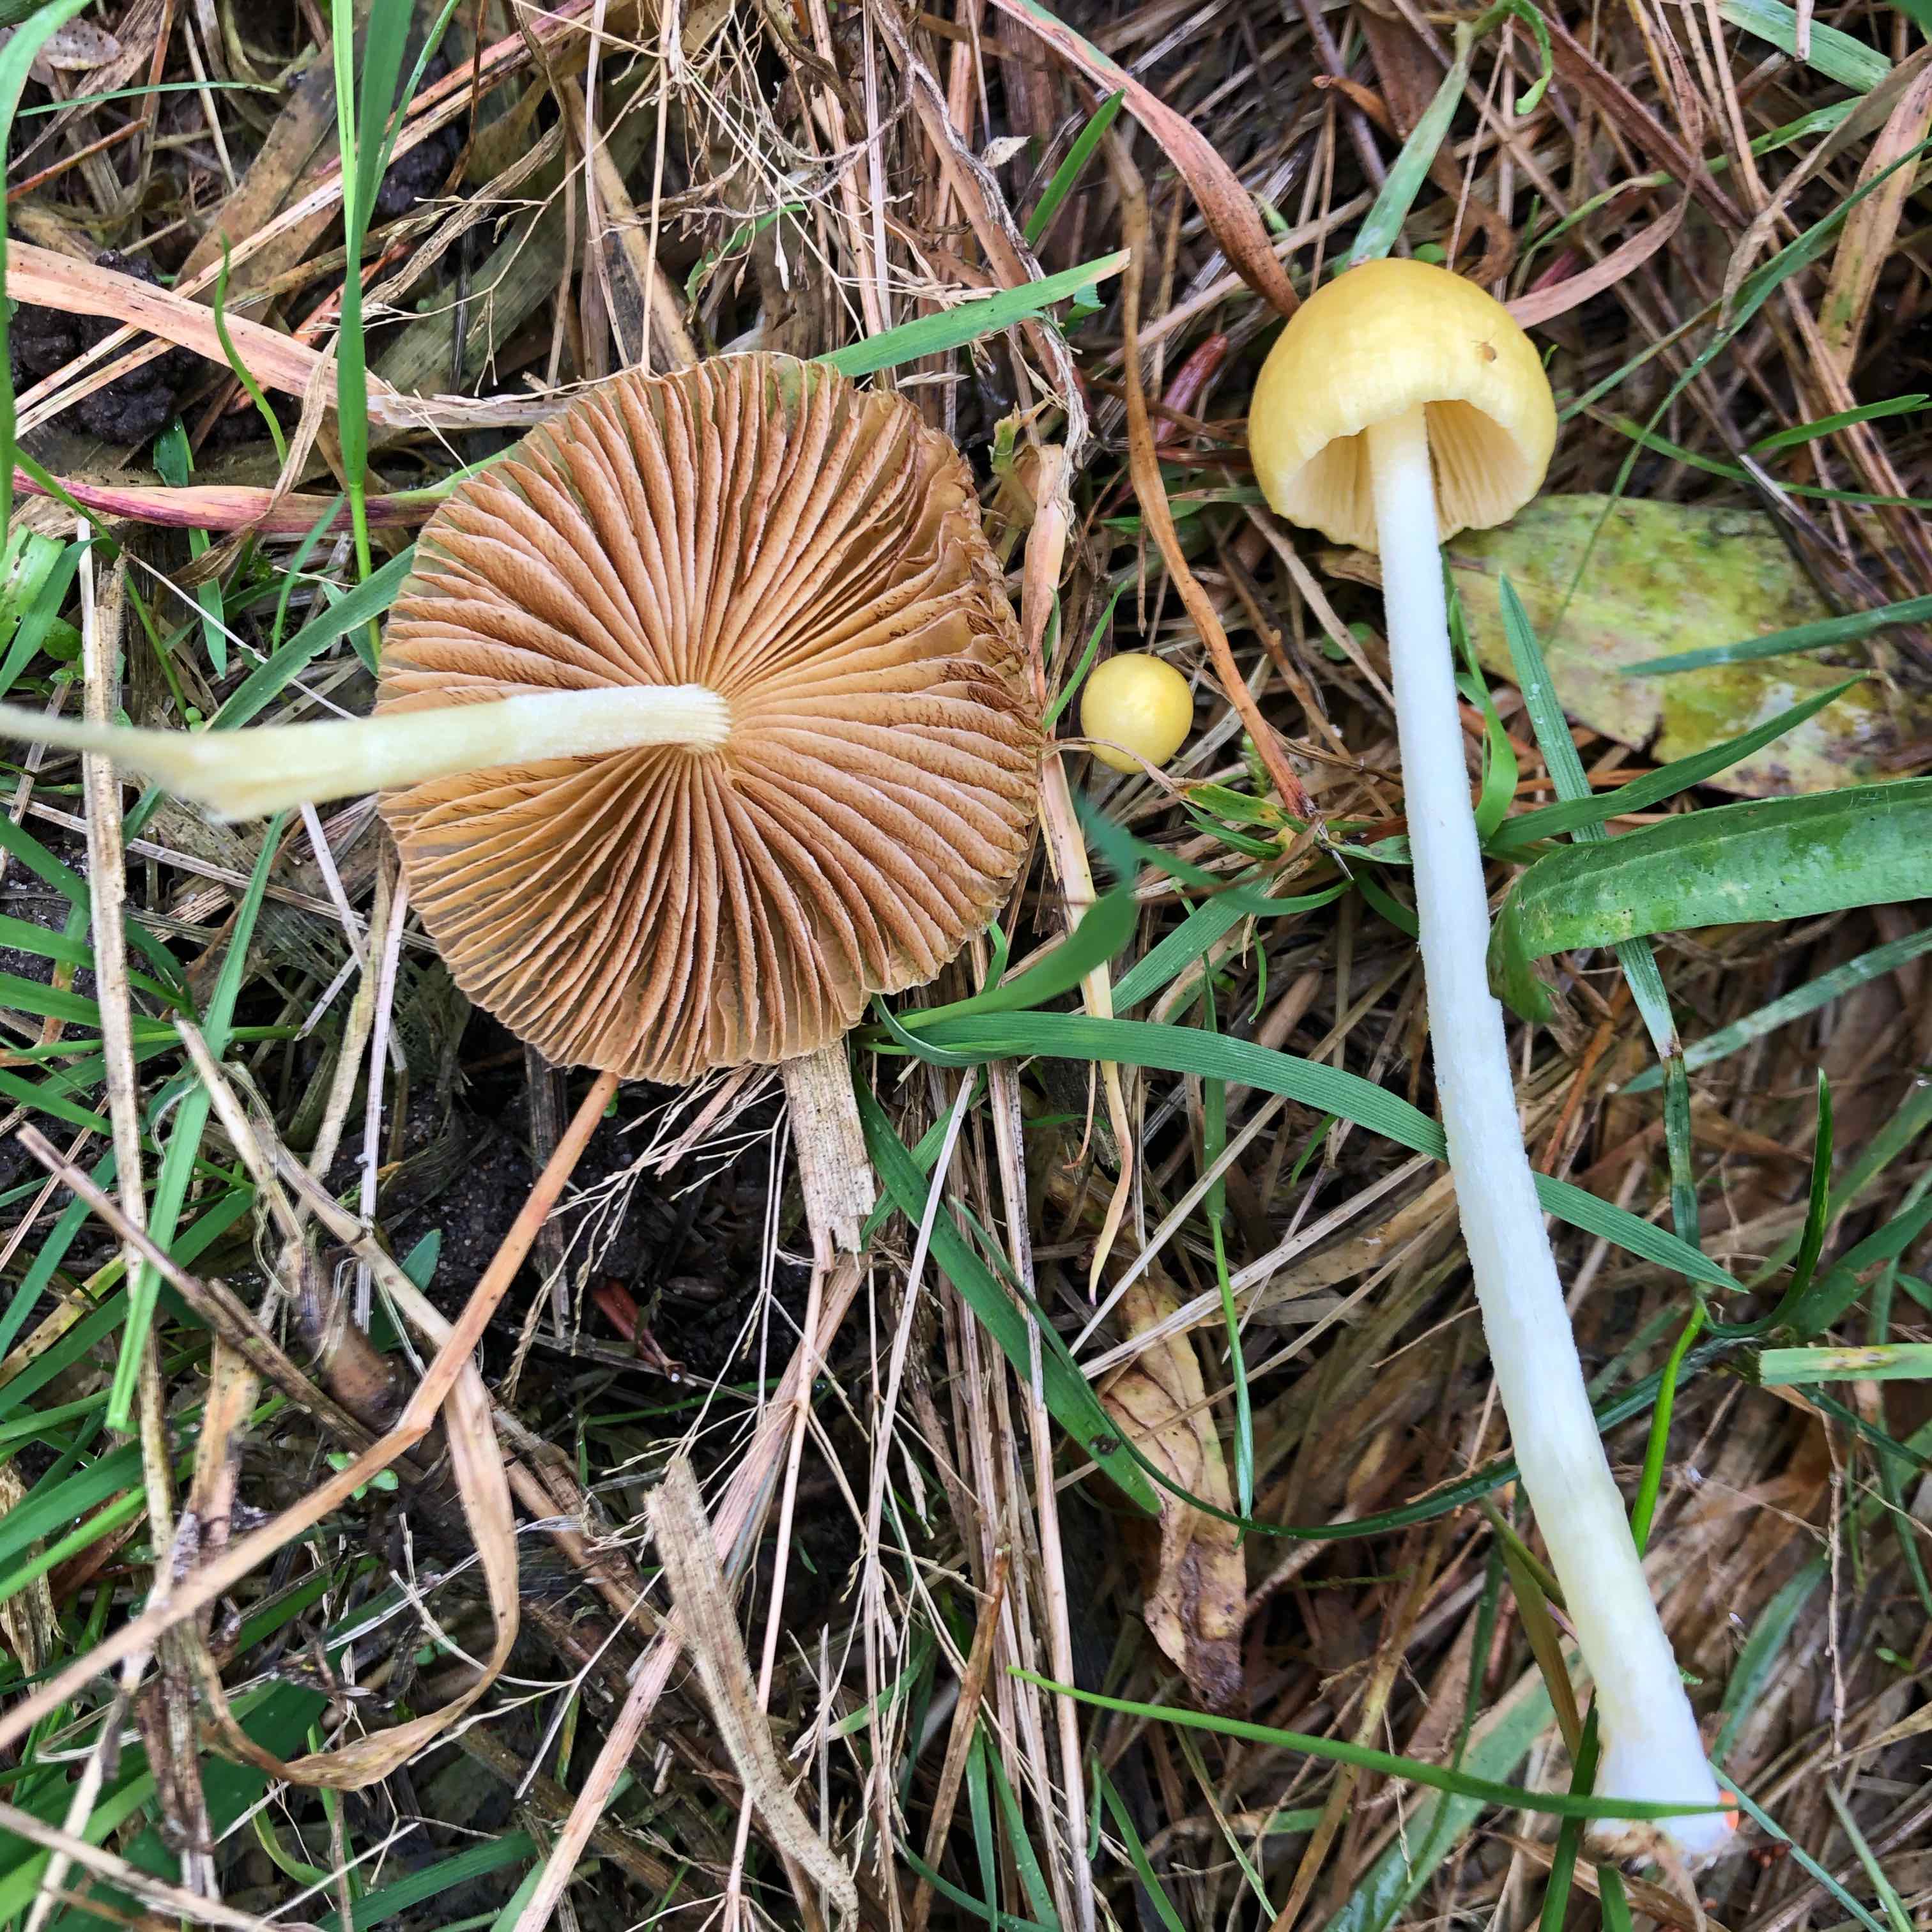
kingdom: Fungi
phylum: Basidiomycota
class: Agaricomycetes
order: Agaricales
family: Bolbitiaceae
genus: Bolbitius
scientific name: Bolbitius titubans
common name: almindelig gulhat
